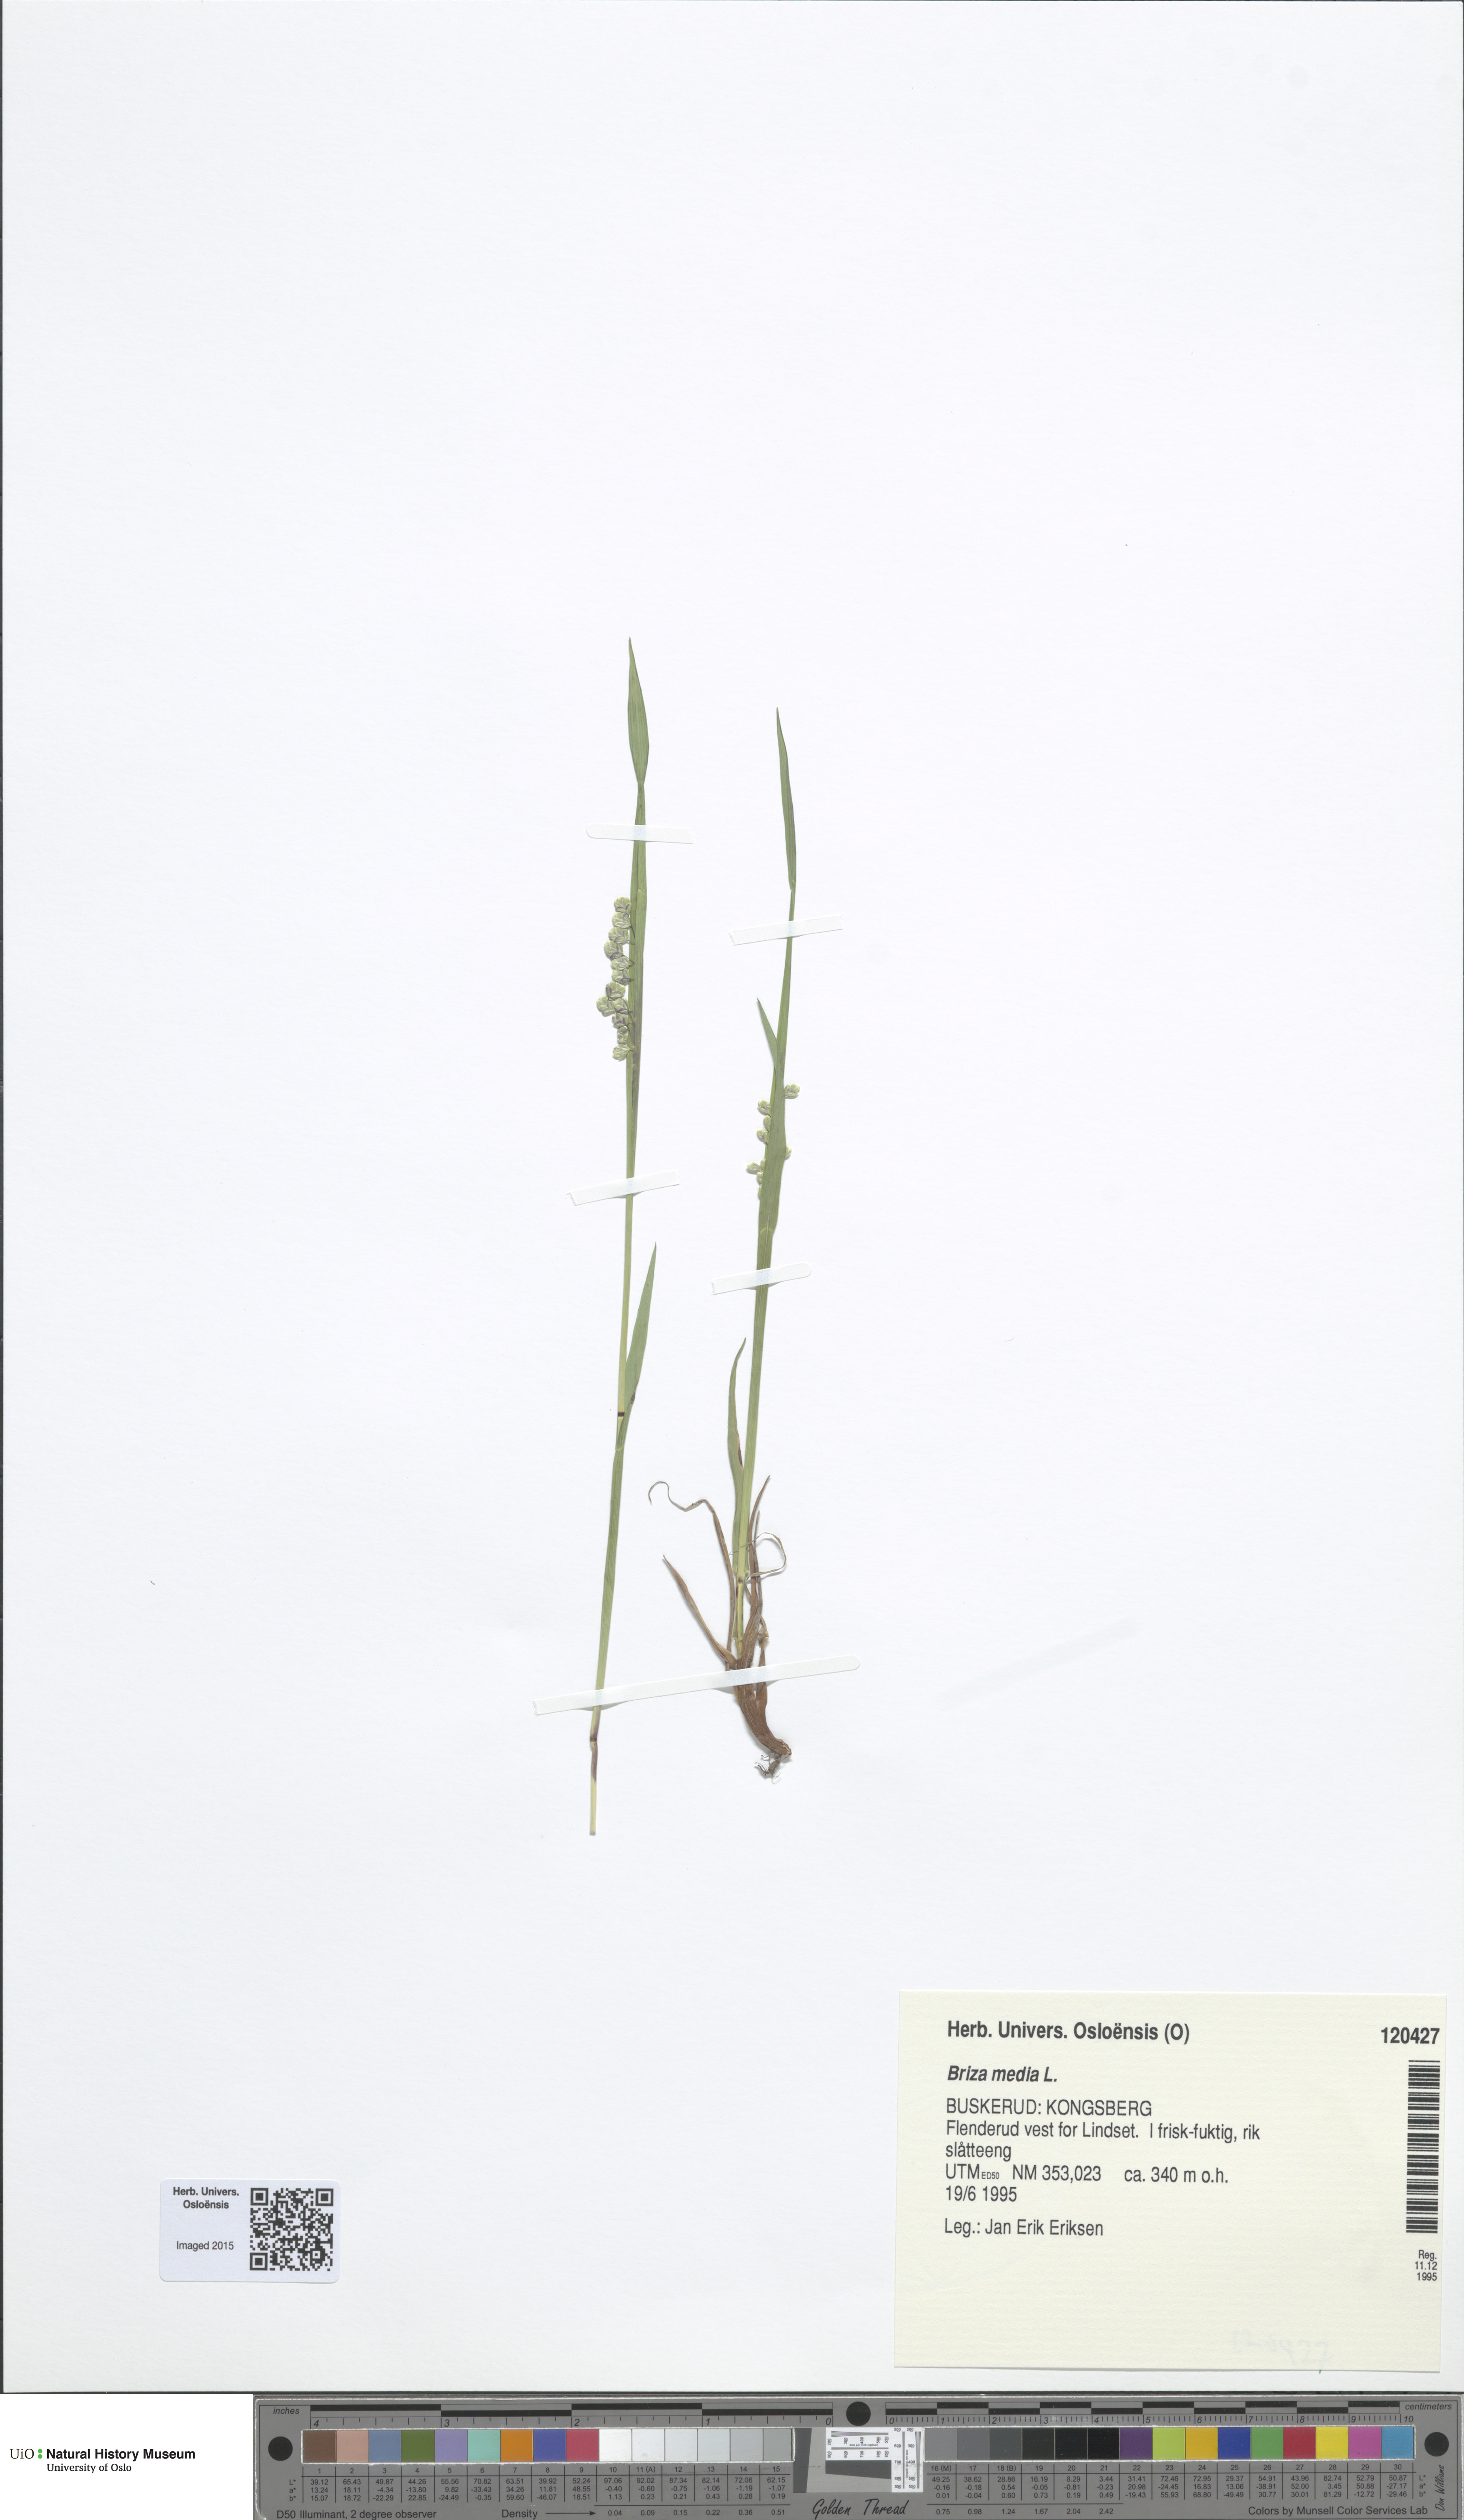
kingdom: Plantae
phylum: Tracheophyta
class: Liliopsida
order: Poales
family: Poaceae
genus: Briza
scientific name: Briza media
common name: Quaking grass
